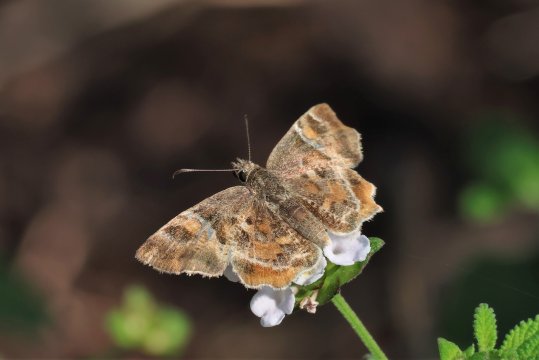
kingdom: Animalia
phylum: Arthropoda
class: Insecta
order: Lepidoptera
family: Hesperiidae
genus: Systasea
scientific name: Systasea pulverulenta
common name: Texas Powdered-Skipper
